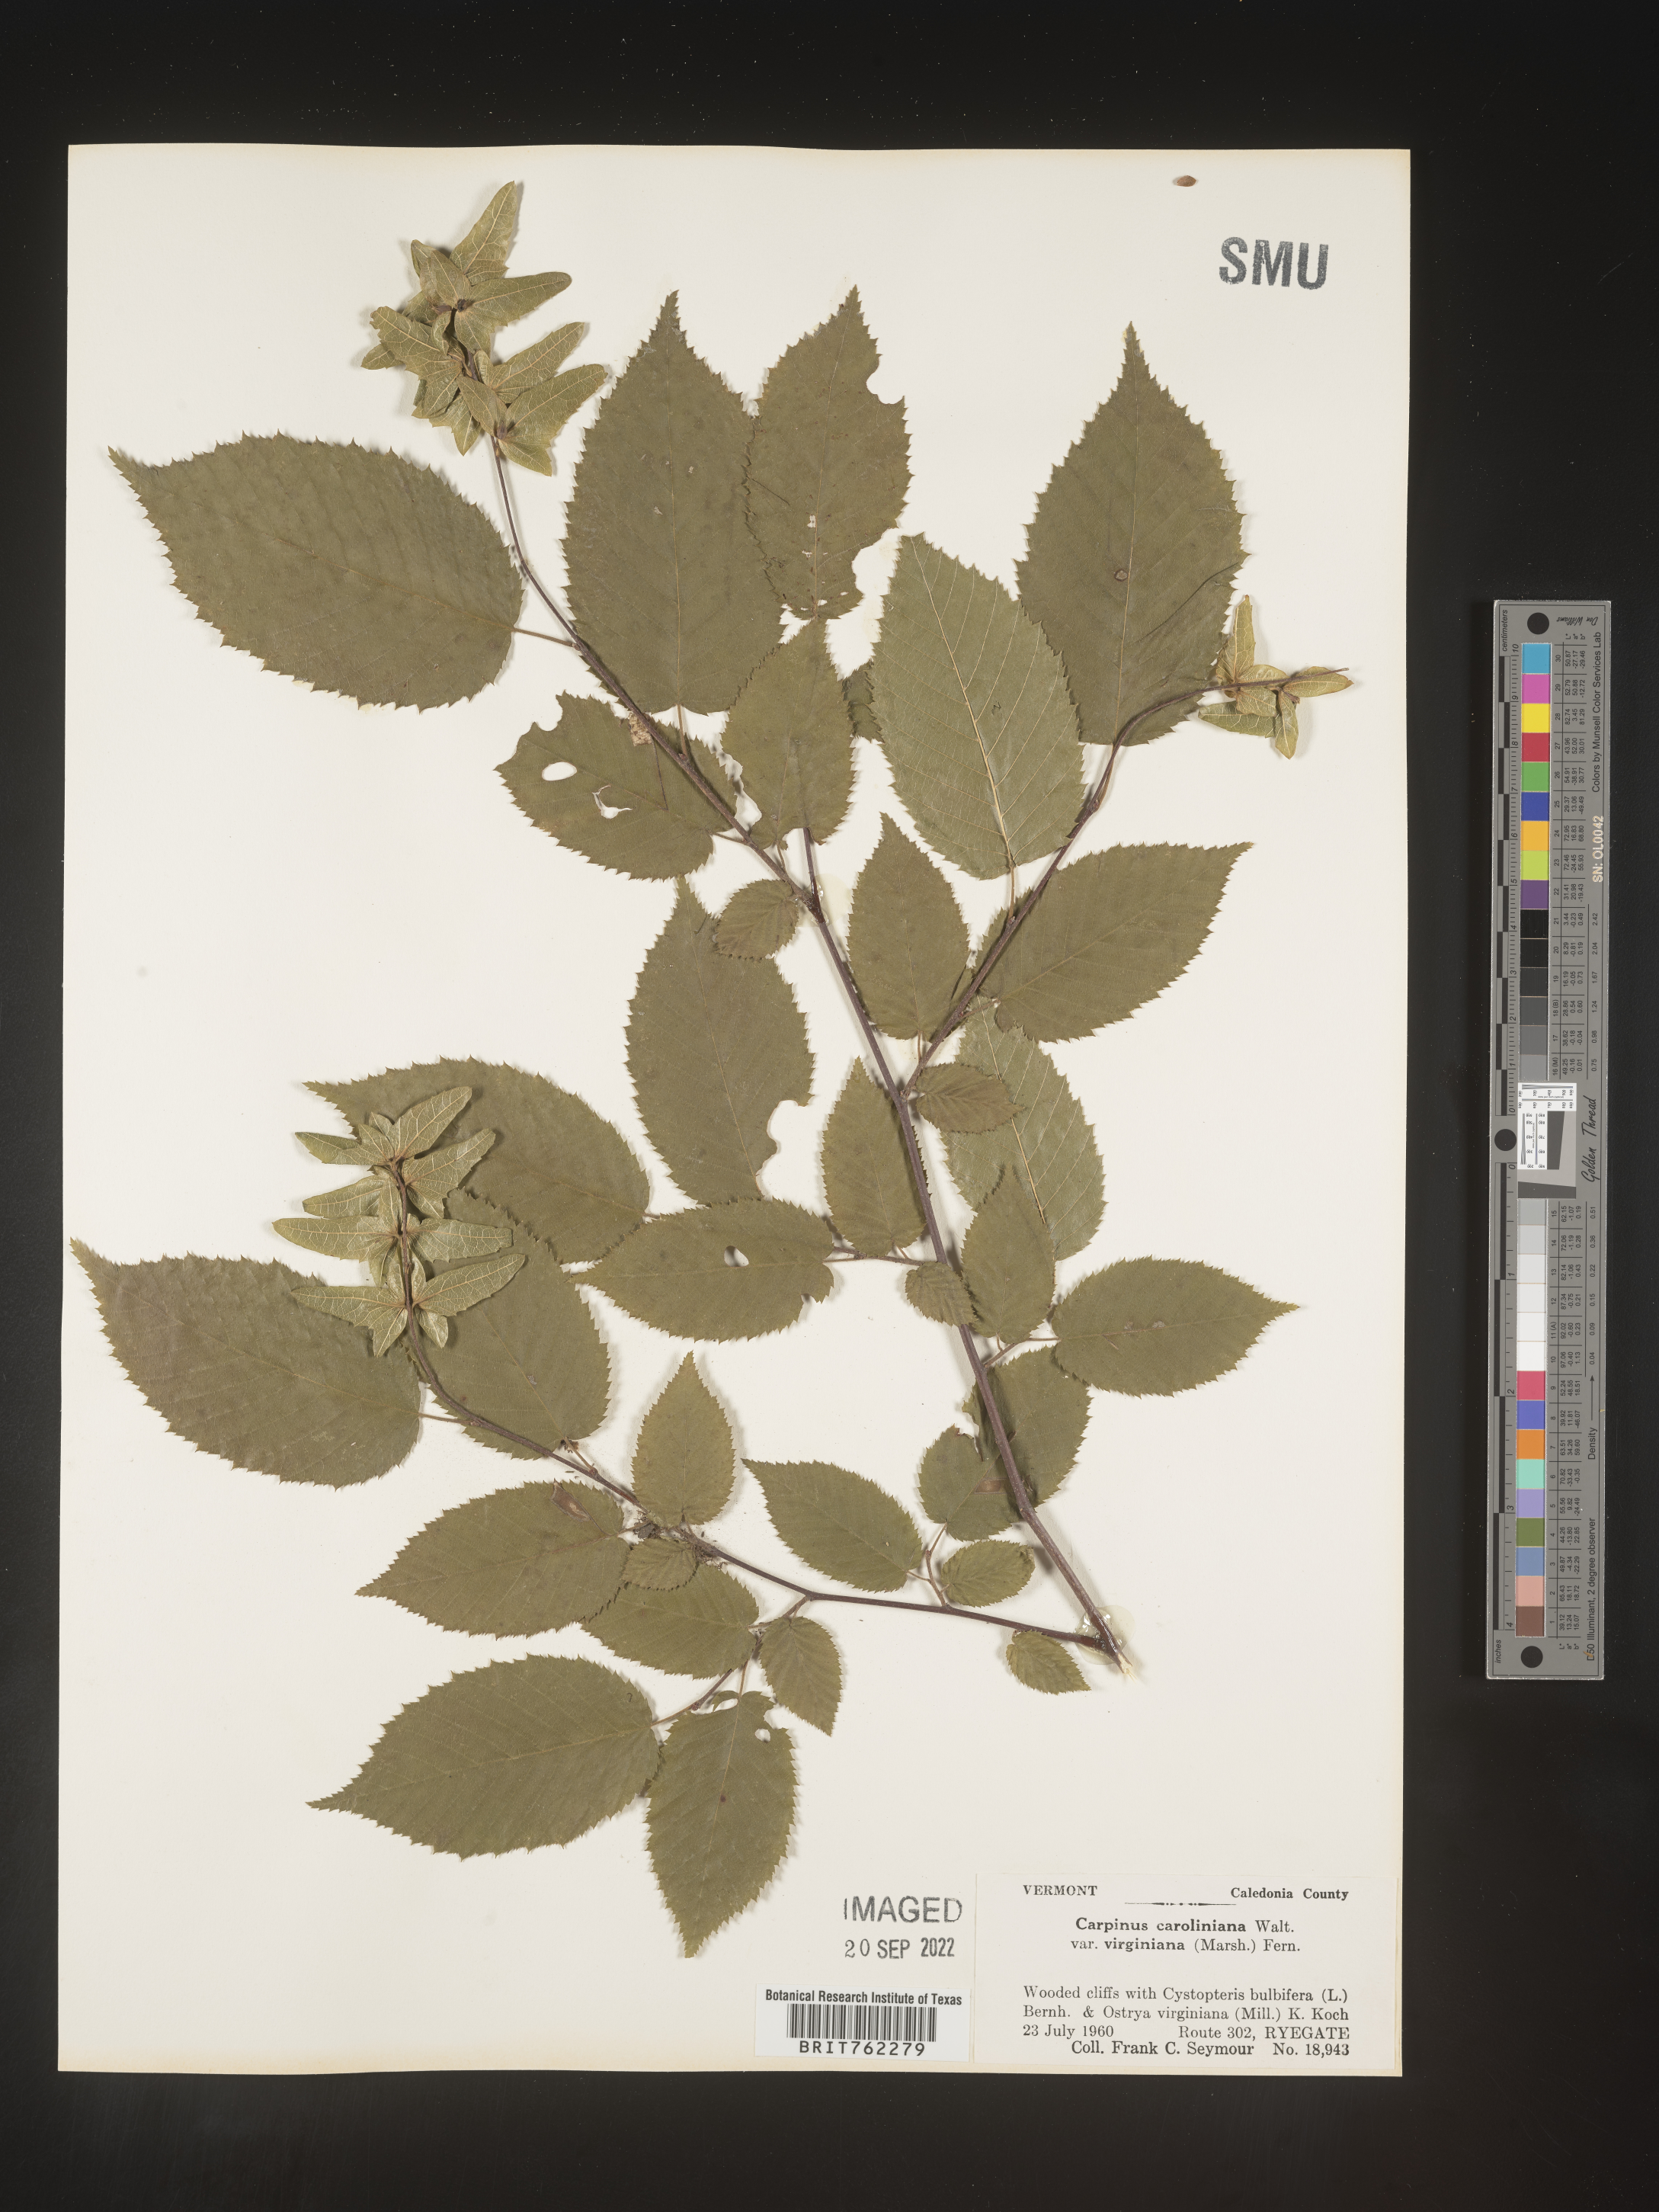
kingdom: Plantae
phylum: Tracheophyta
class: Magnoliopsida
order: Fagales
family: Betulaceae
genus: Carpinus
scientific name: Carpinus caroliniana
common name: American hornbeam
